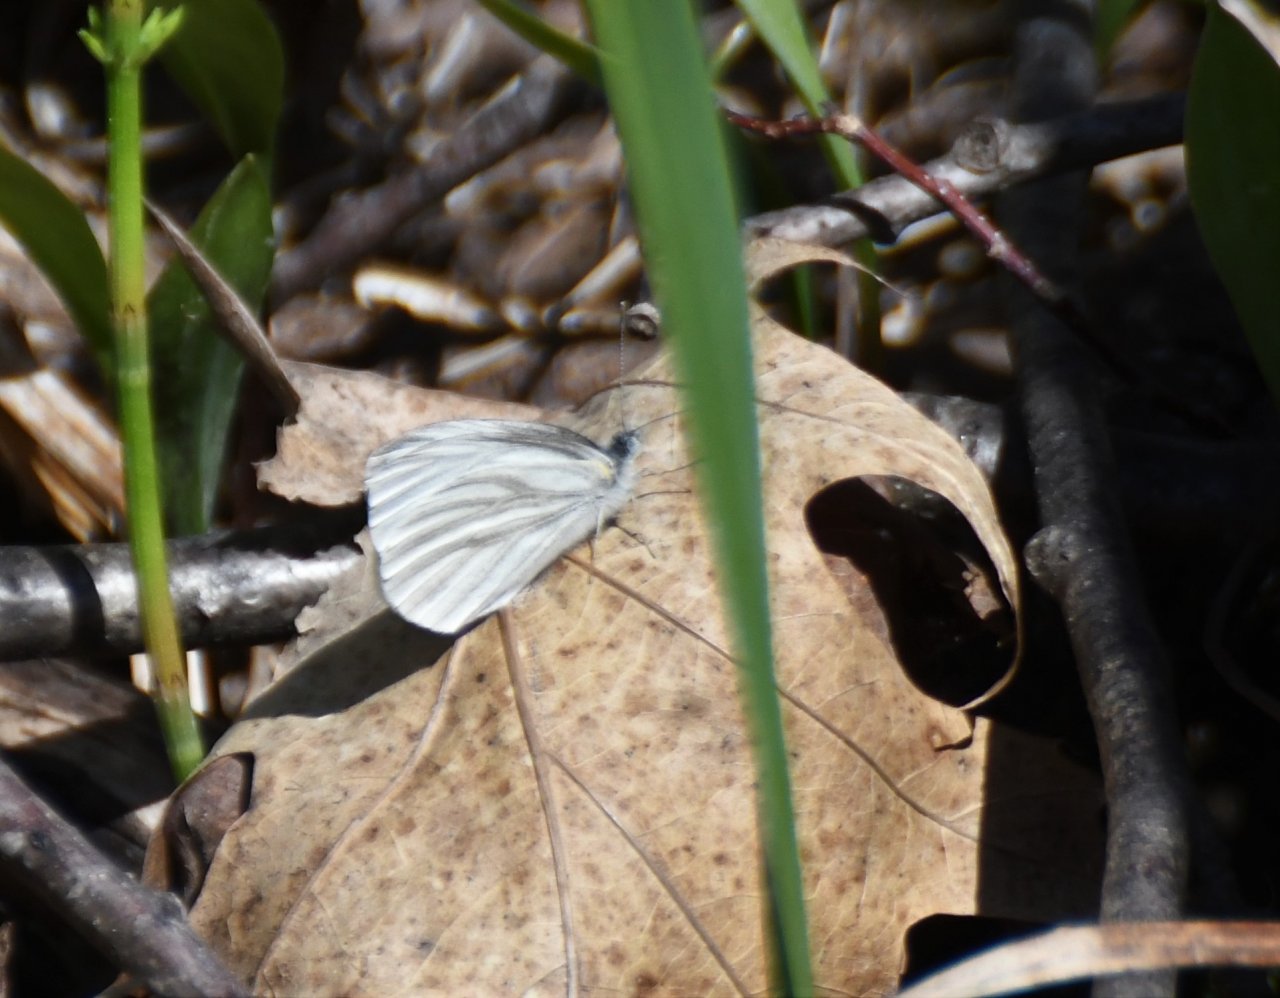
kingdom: Animalia
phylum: Arthropoda
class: Insecta
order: Lepidoptera
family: Pieridae
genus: Pieris
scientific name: Pieris virginiensis
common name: West Virginia White
